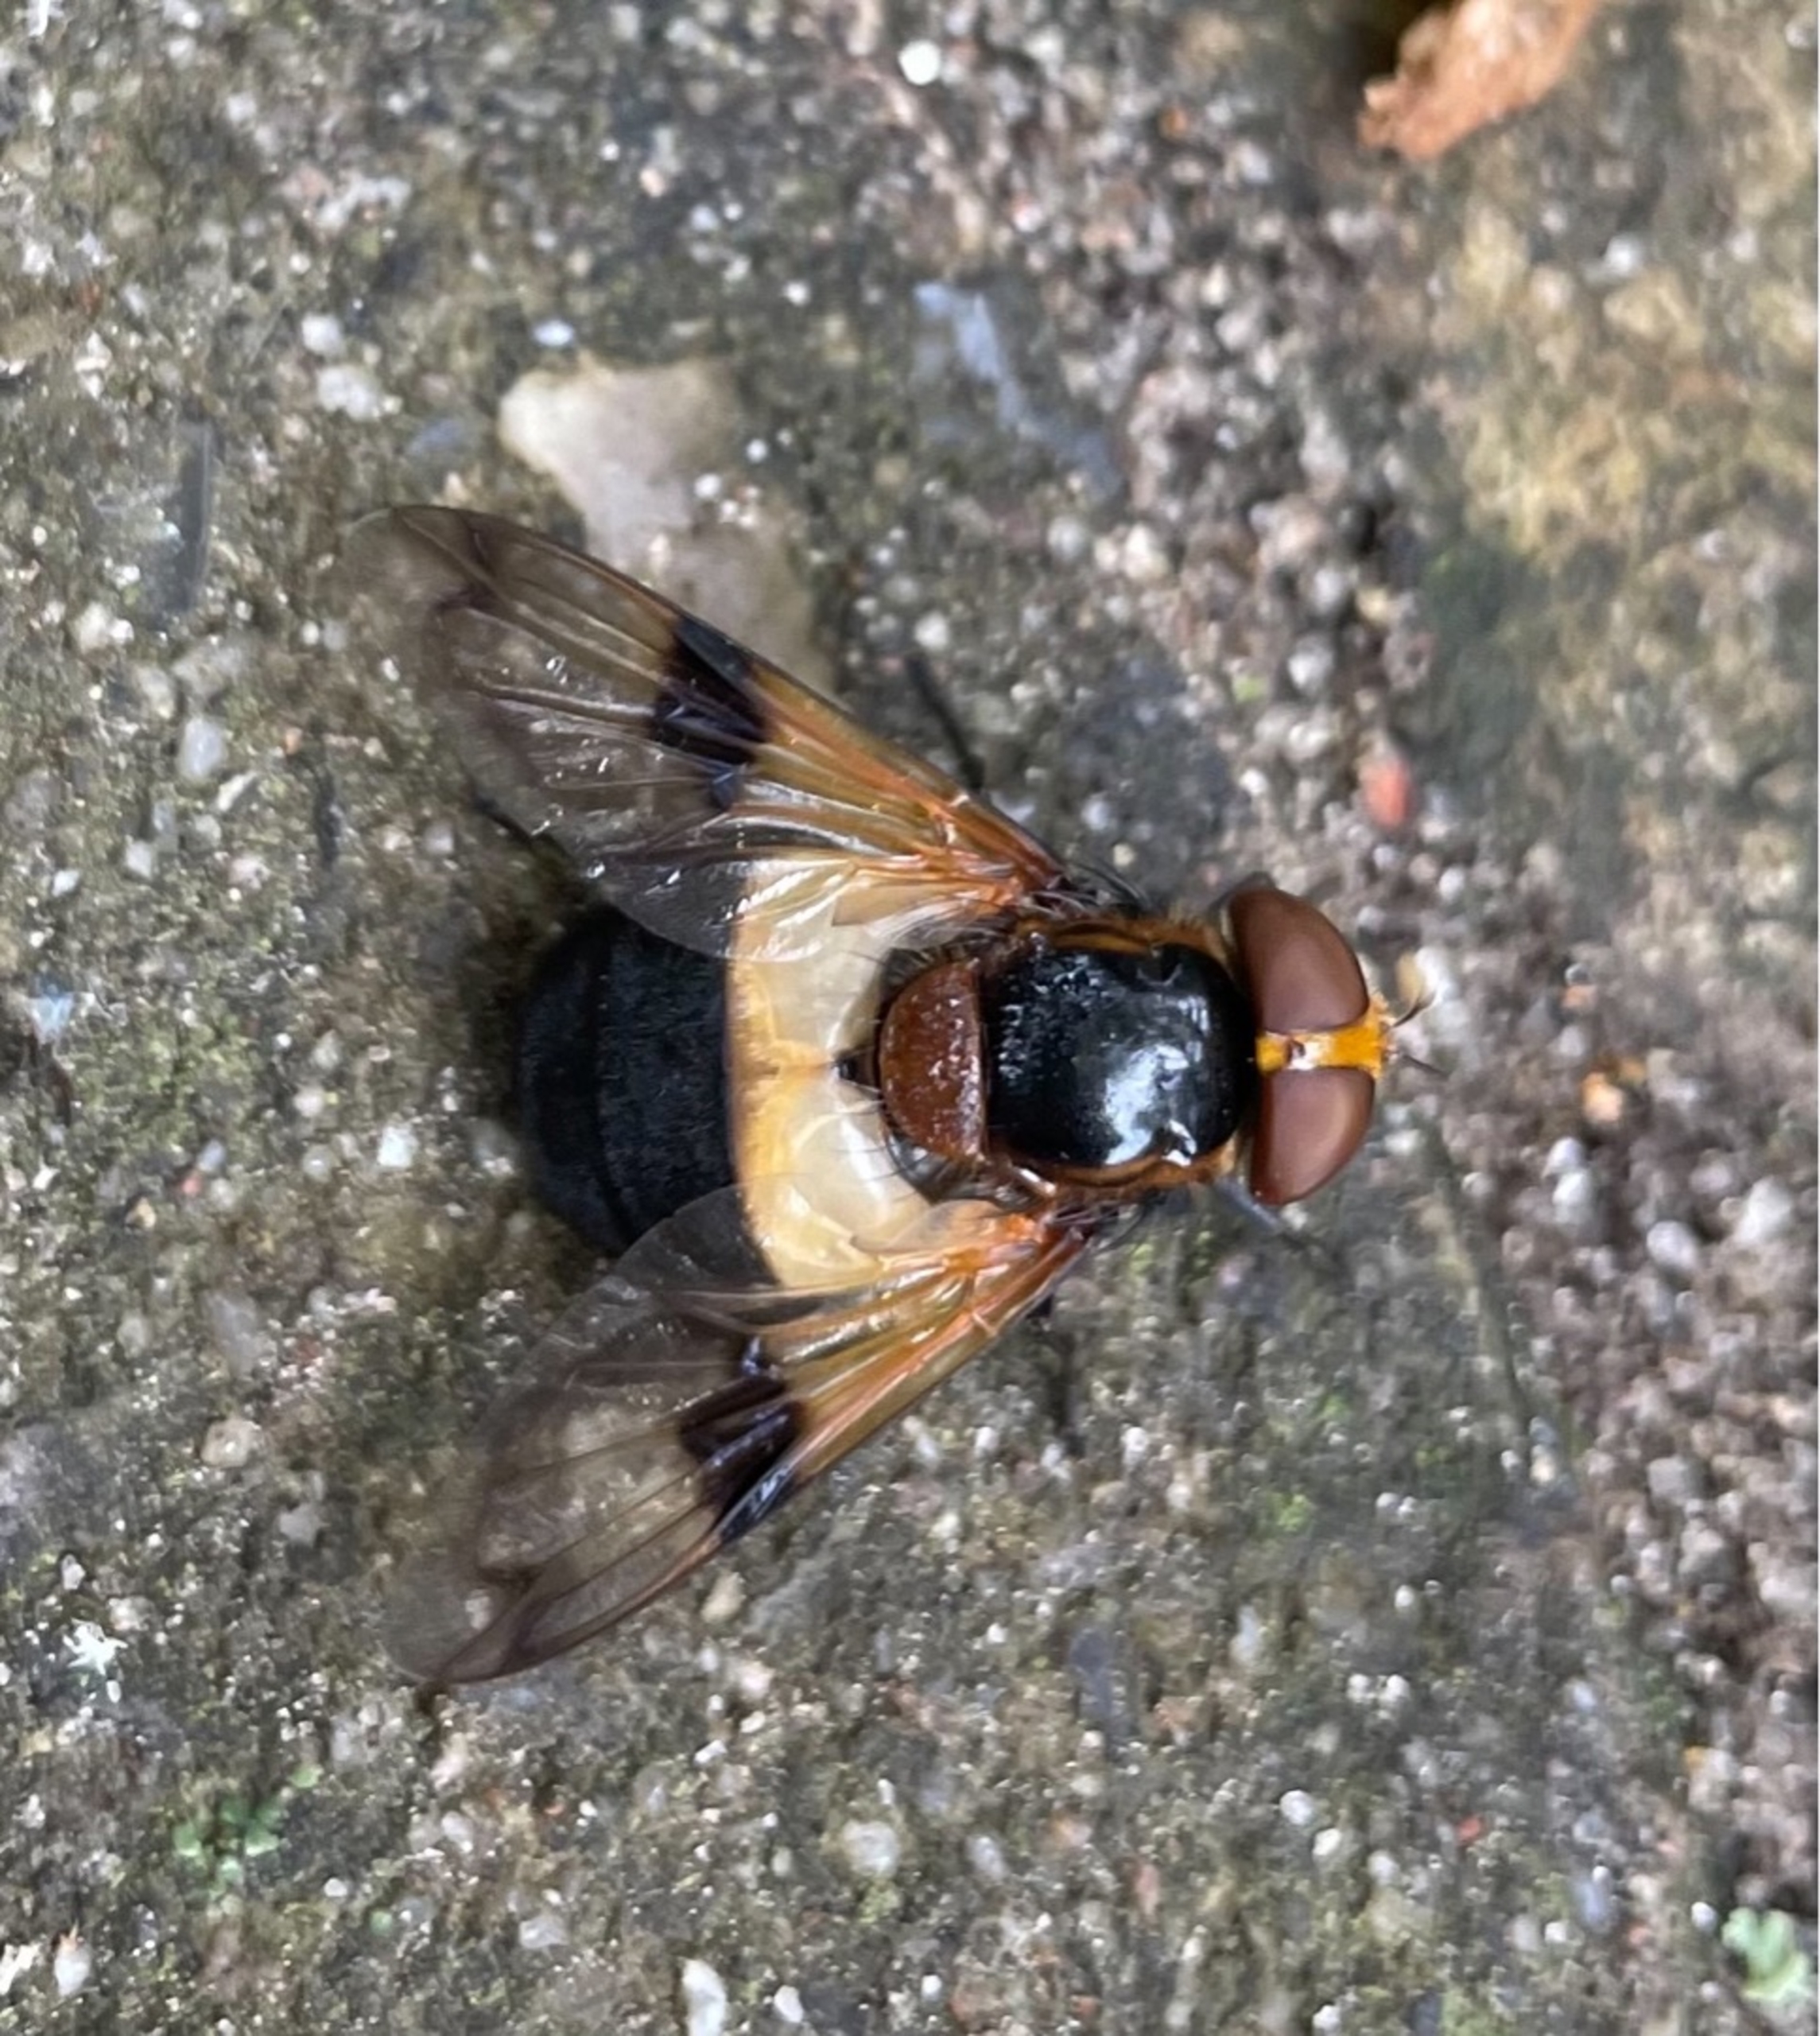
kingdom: Animalia
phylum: Arthropoda
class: Insecta
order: Diptera
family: Syrphidae
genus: Volucella
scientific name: Volucella pellucens
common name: Hvidbåndet humlesvirreflue
